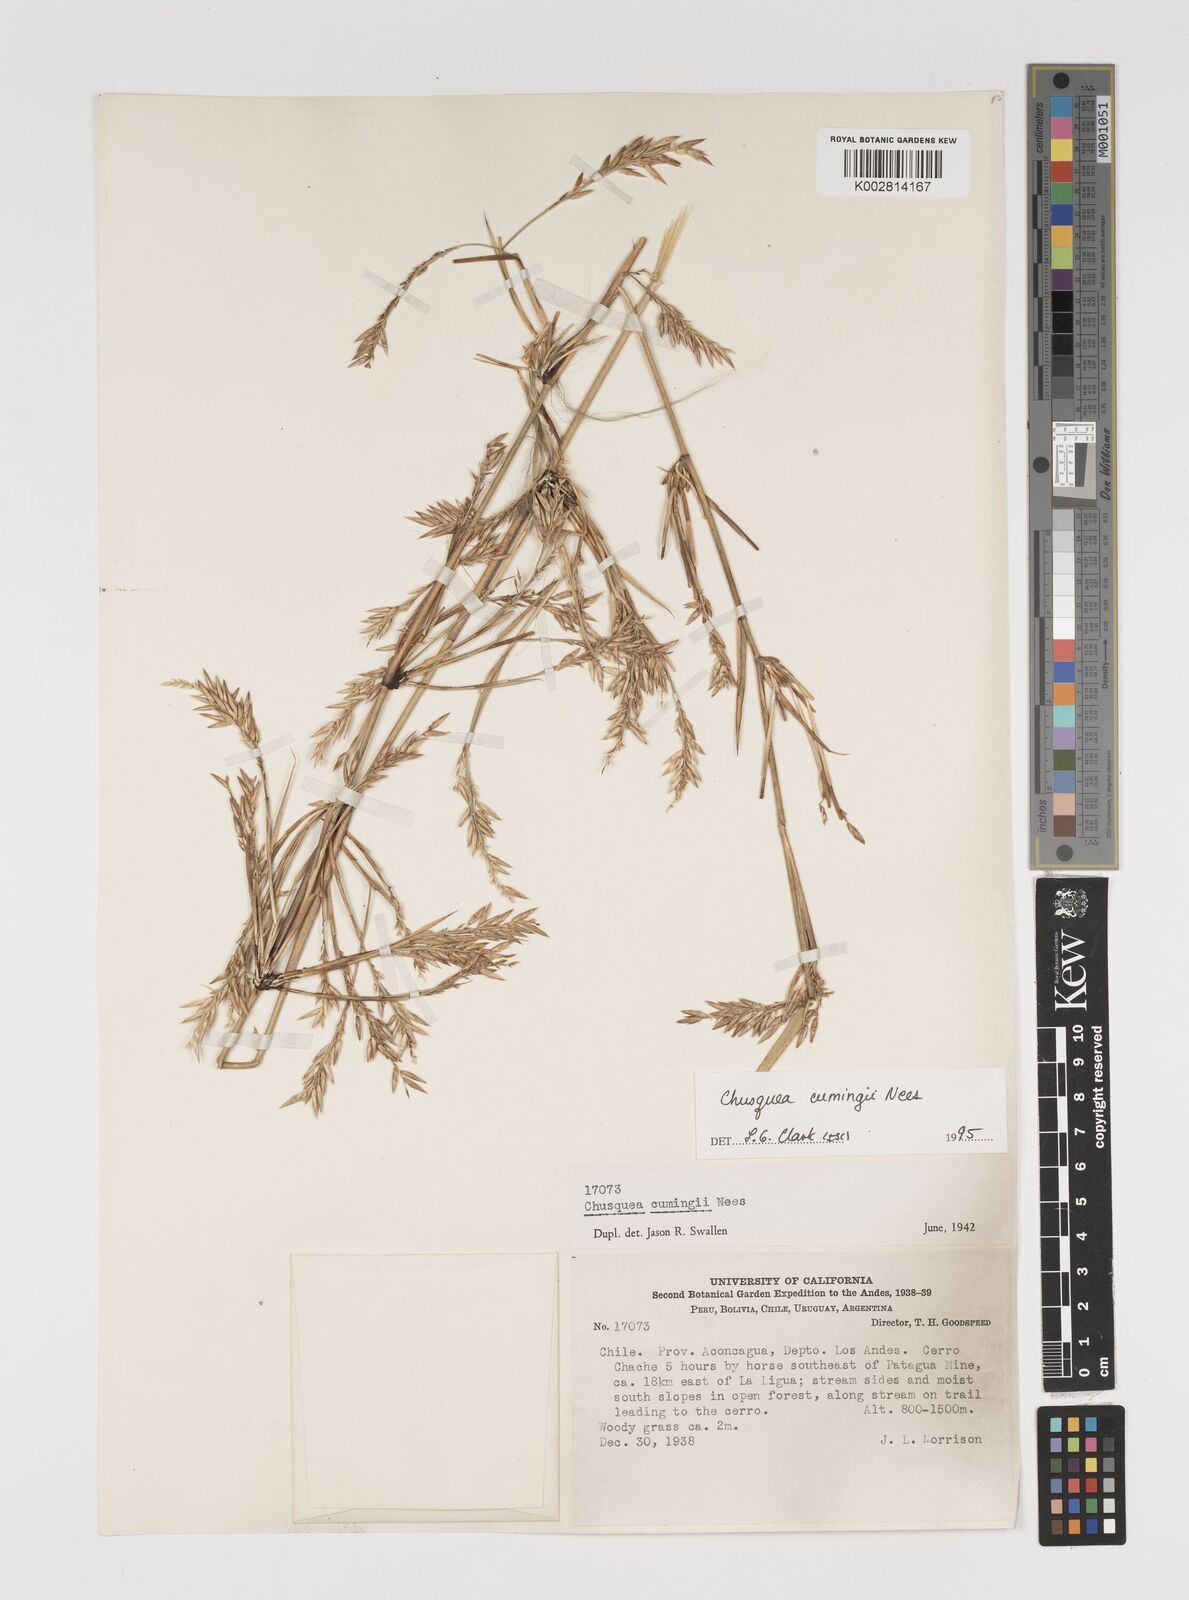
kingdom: Plantae
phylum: Tracheophyta
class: Liliopsida
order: Poales
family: Poaceae
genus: Chusquea
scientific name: Chusquea cumingii
